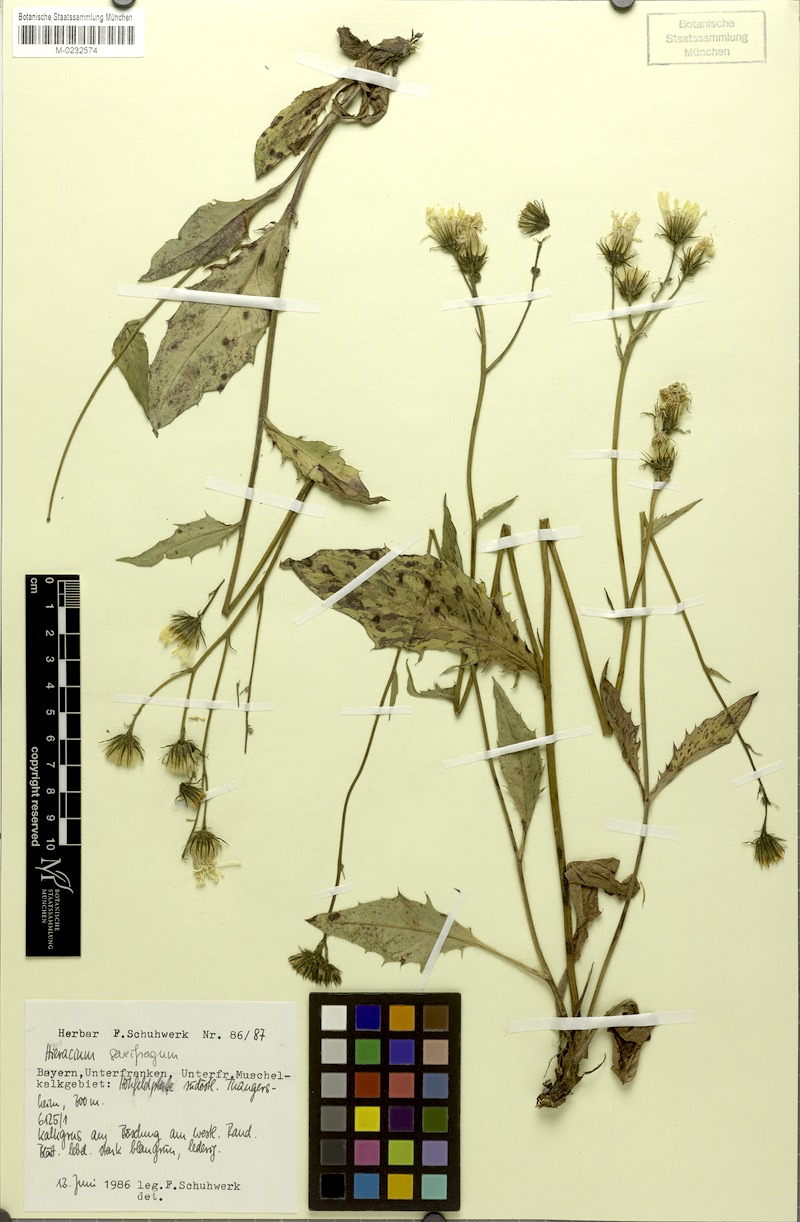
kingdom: Plantae
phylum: Tracheophyta
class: Magnoliopsida
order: Asterales
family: Asteraceae
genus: Hieracium
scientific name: Hieracium saxifragum
